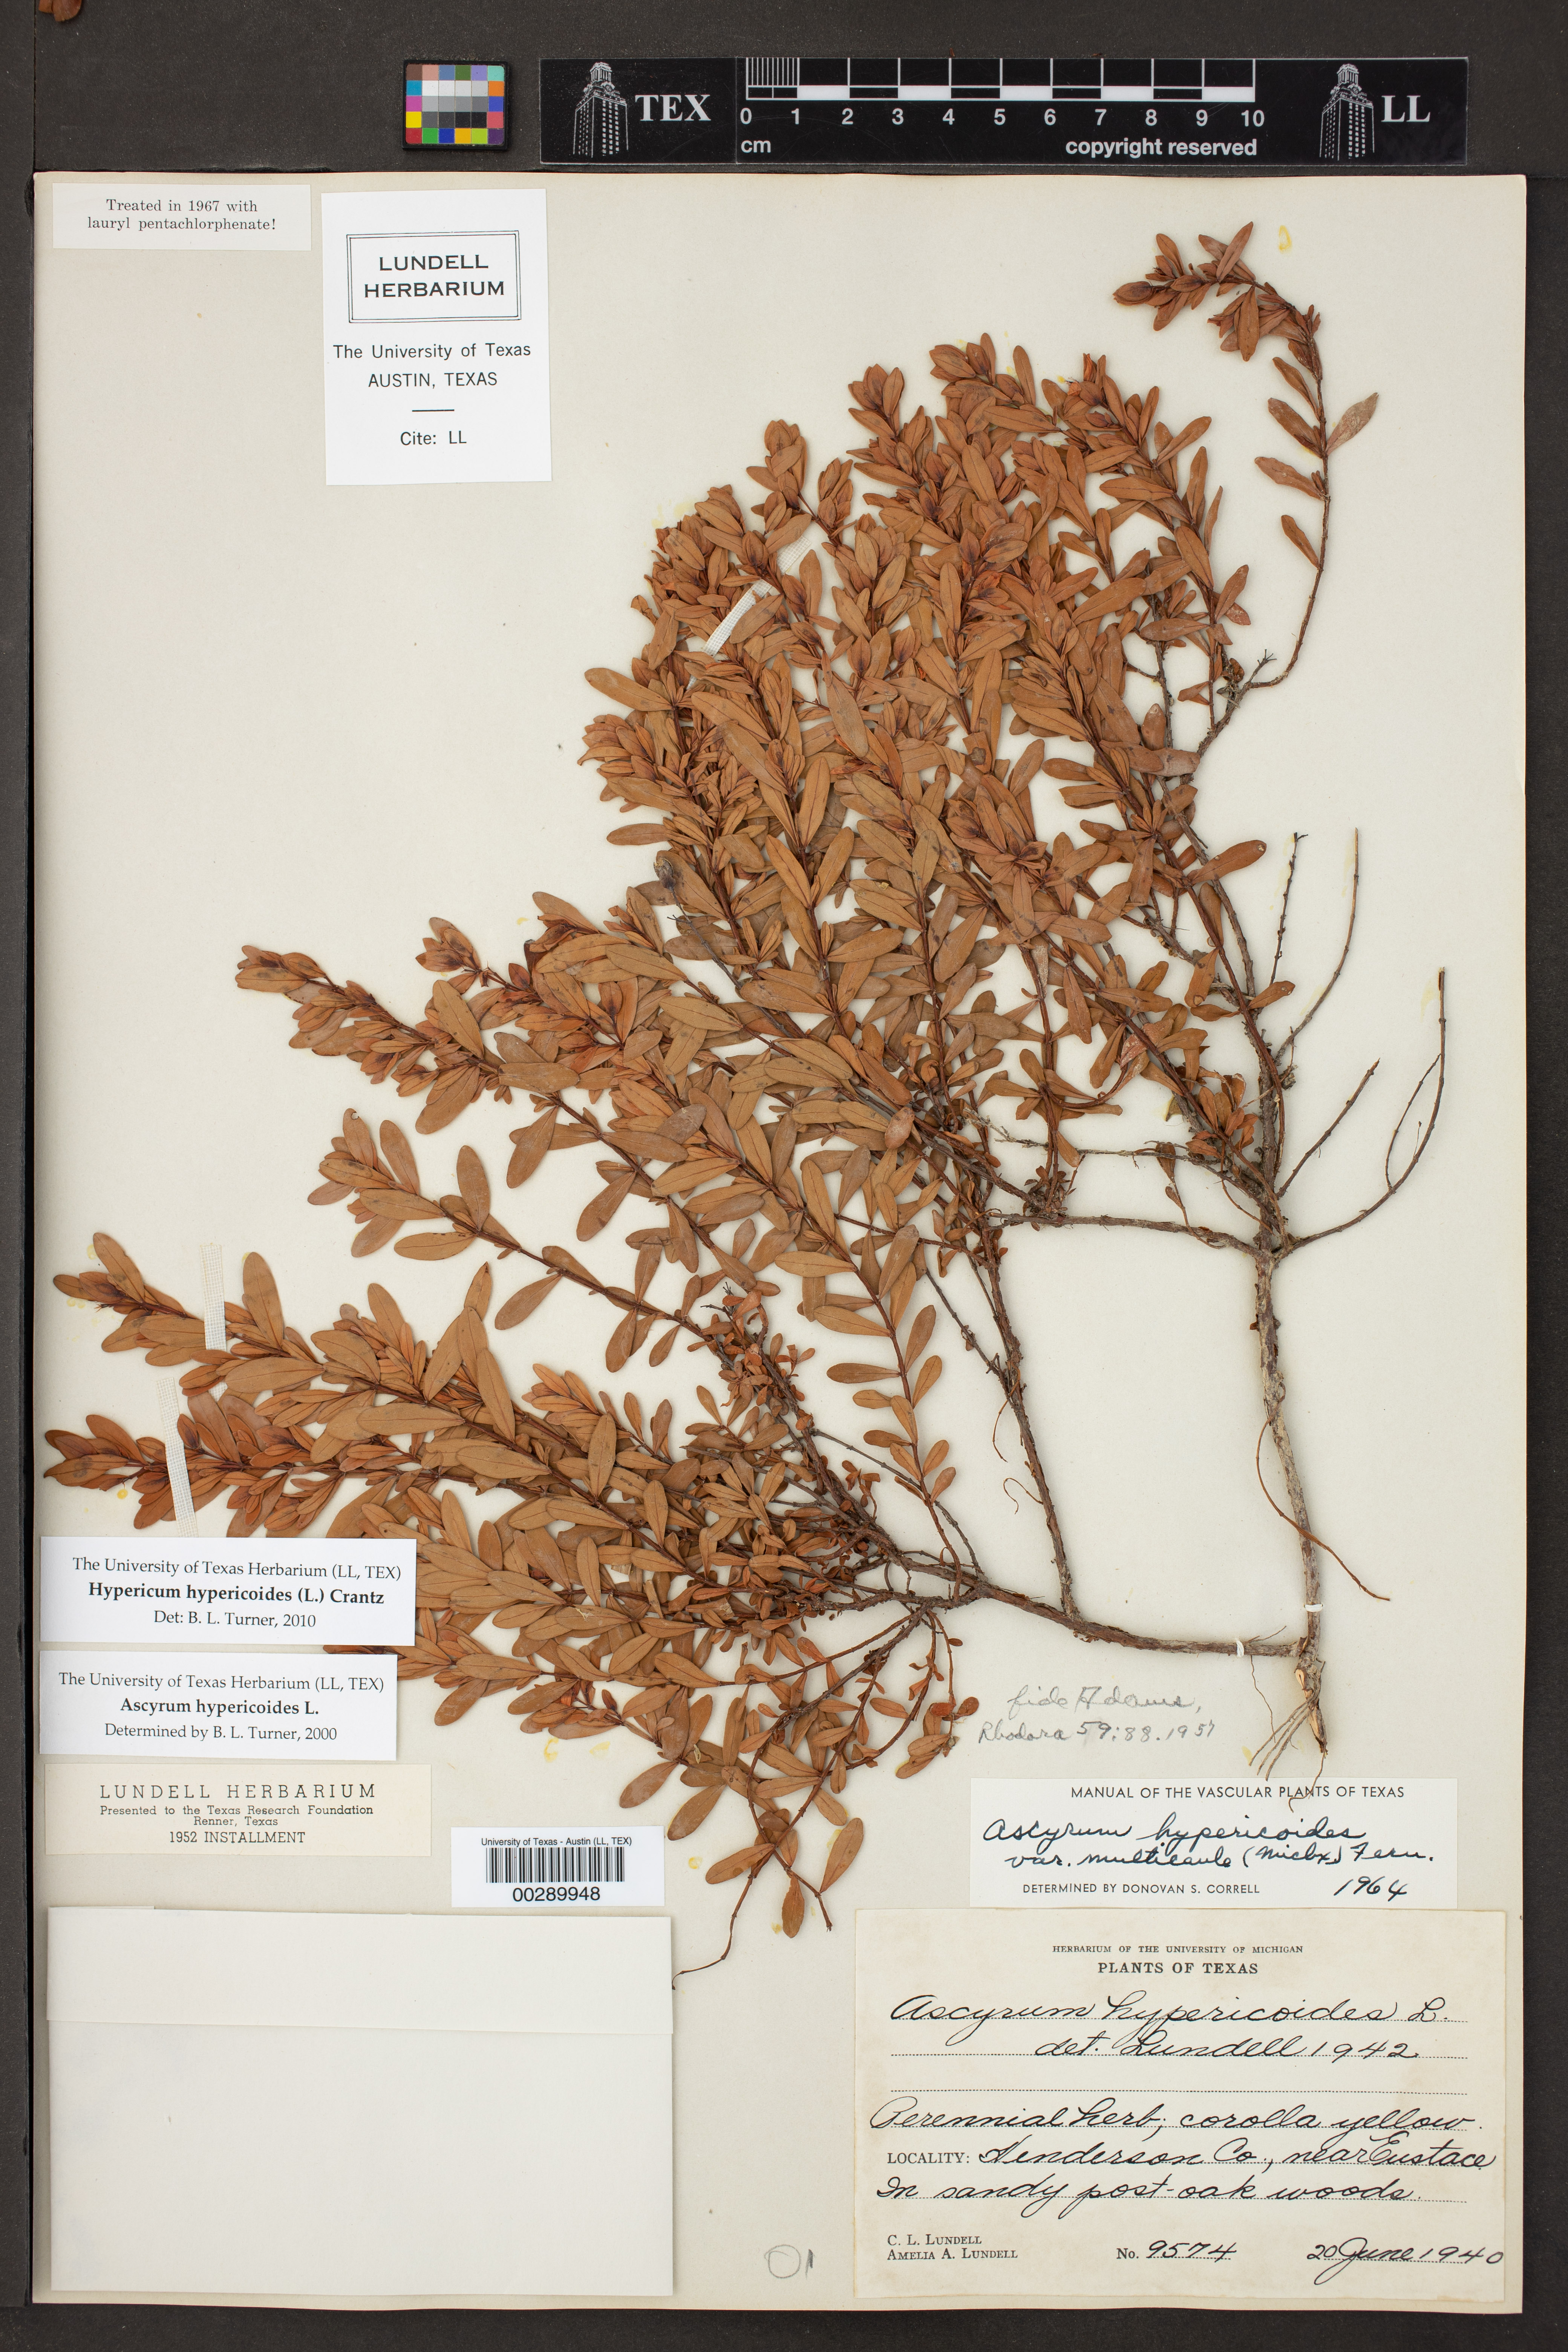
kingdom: Plantae
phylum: Tracheophyta
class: Magnoliopsida
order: Malpighiales
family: Hypericaceae
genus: Hypericum
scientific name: Hypericum hypericoides
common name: St. andrew's cross
